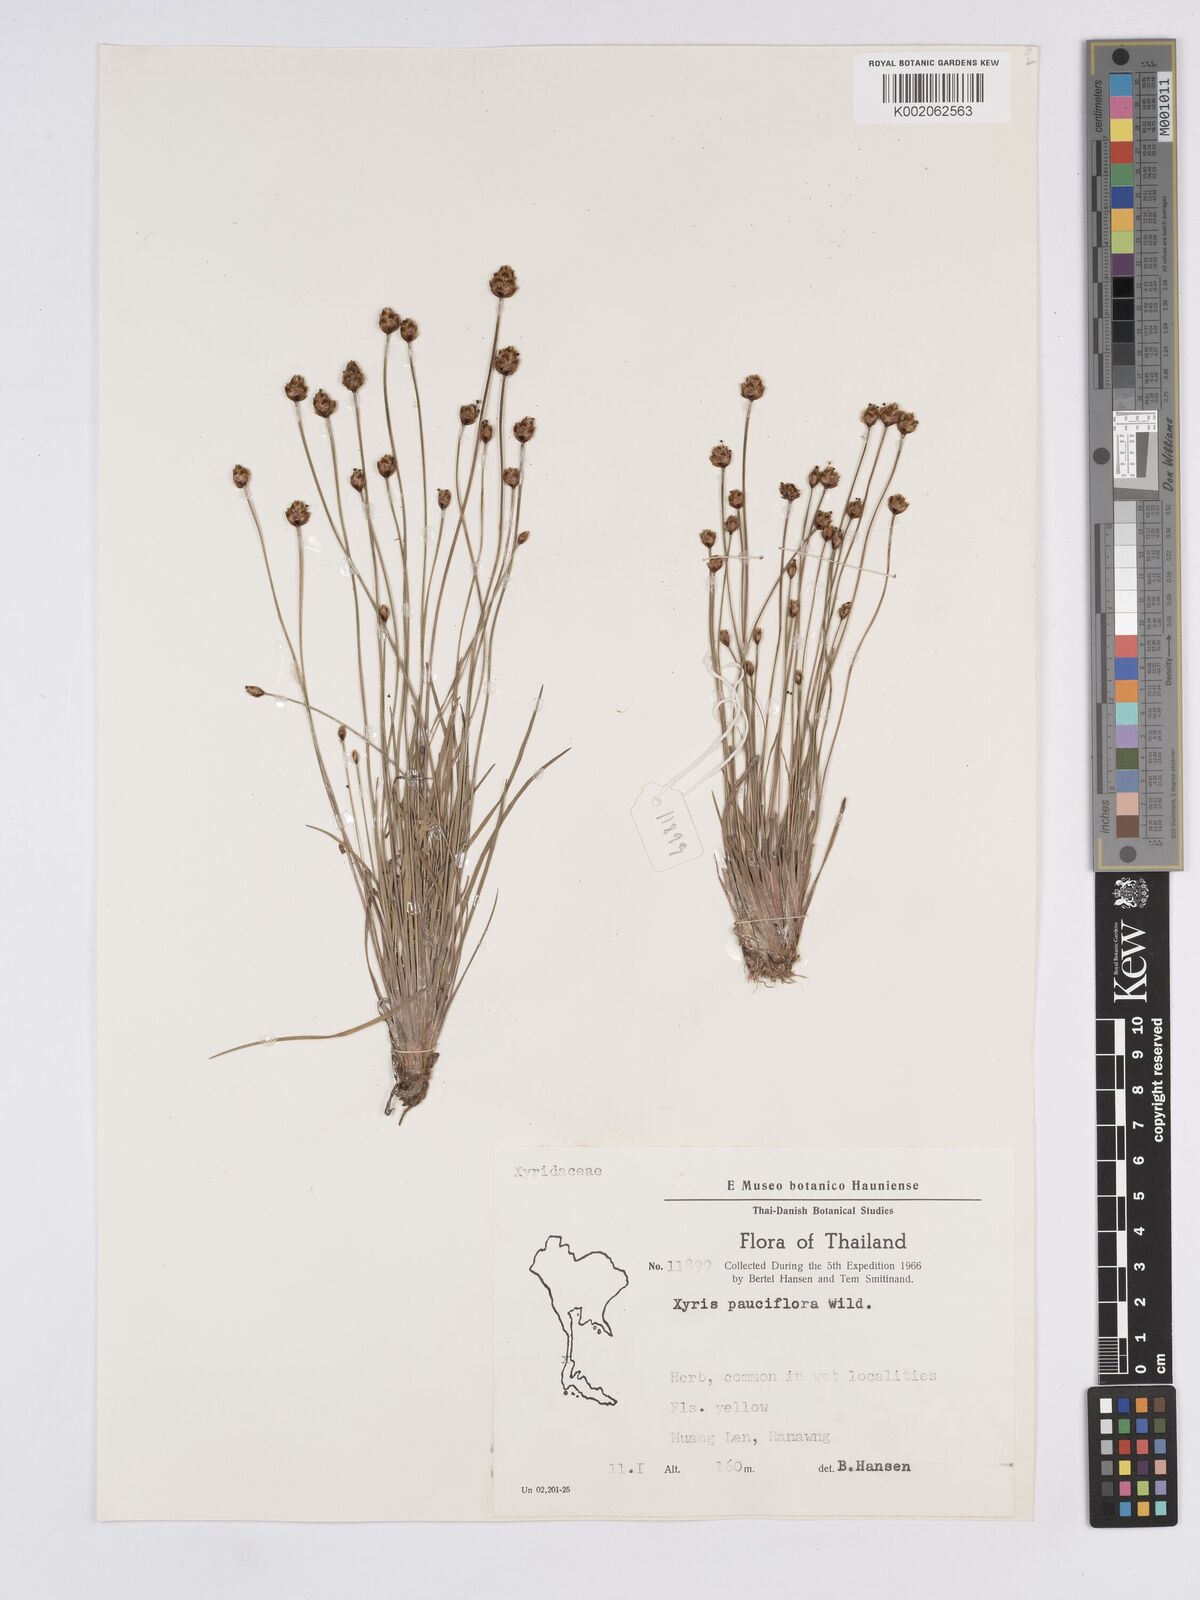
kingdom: Plantae
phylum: Tracheophyta
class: Liliopsida
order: Poales
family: Xyridaceae
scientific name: Xyridaceae
